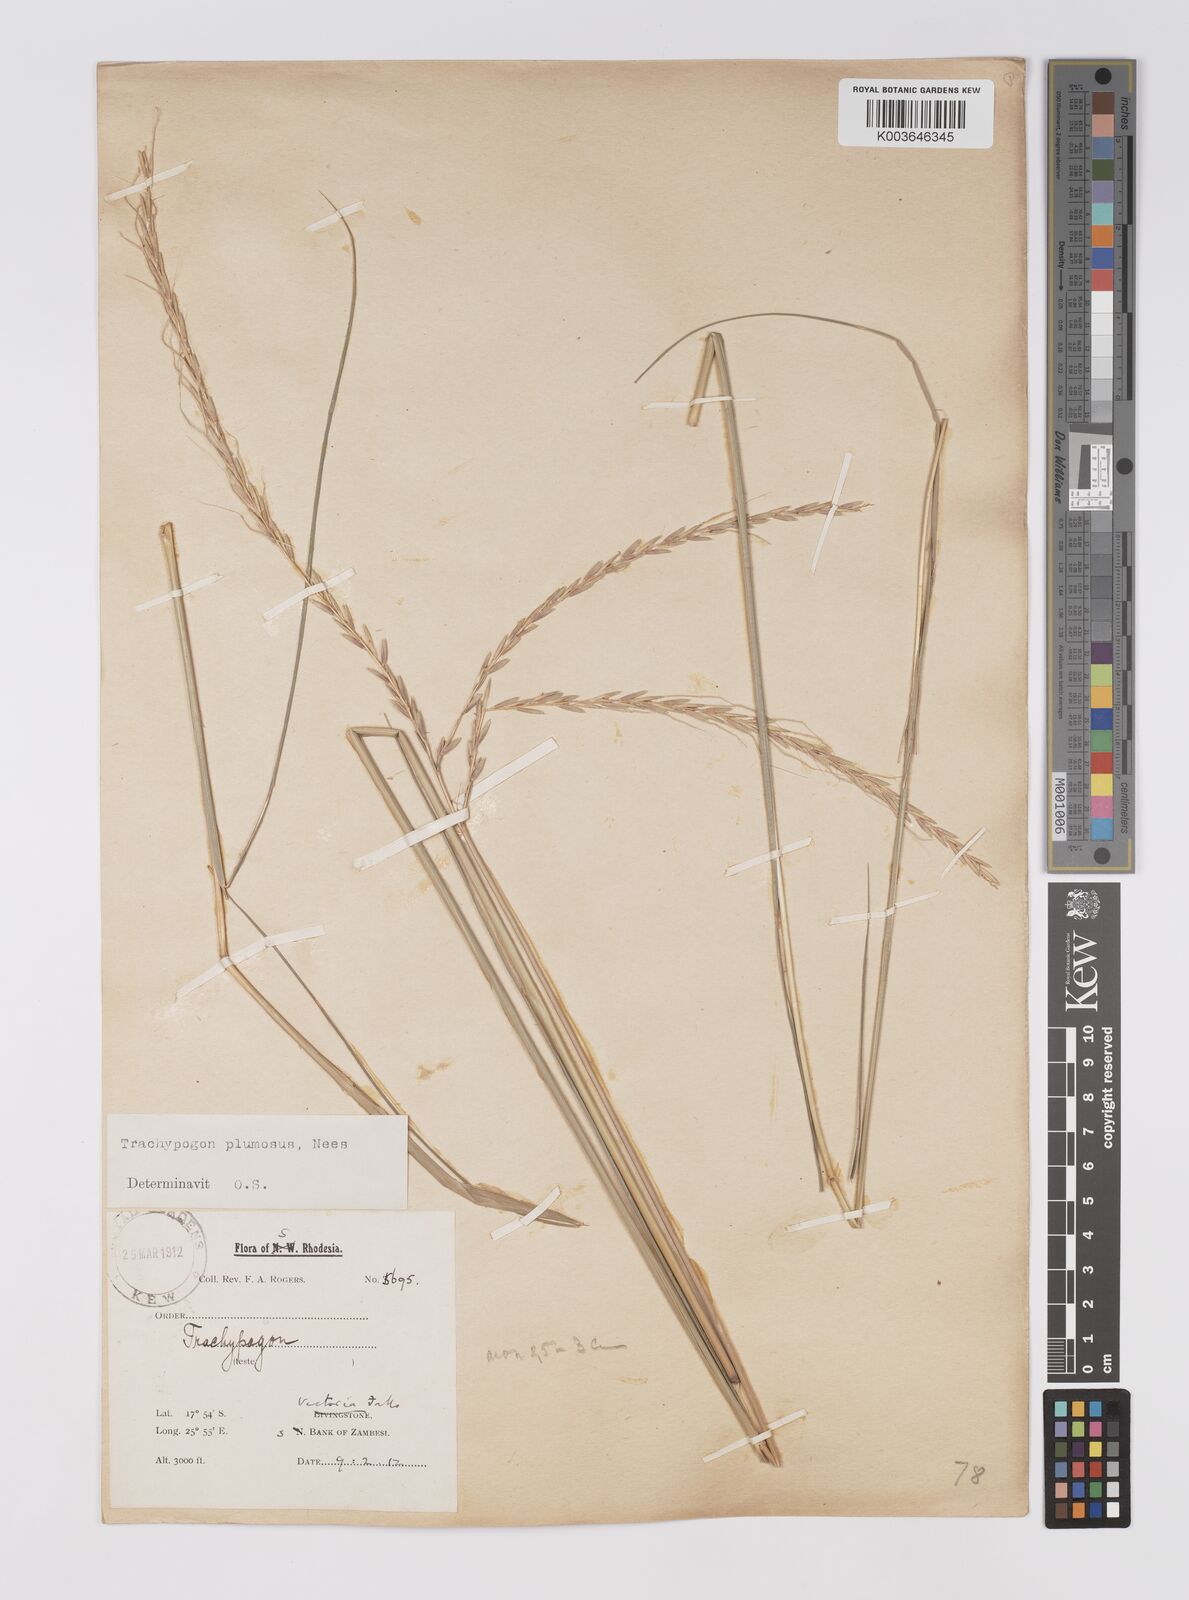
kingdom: Plantae
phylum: Tracheophyta
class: Liliopsida
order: Poales
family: Poaceae
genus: Trachypogon
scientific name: Trachypogon spicatus
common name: Crinkle-awn
